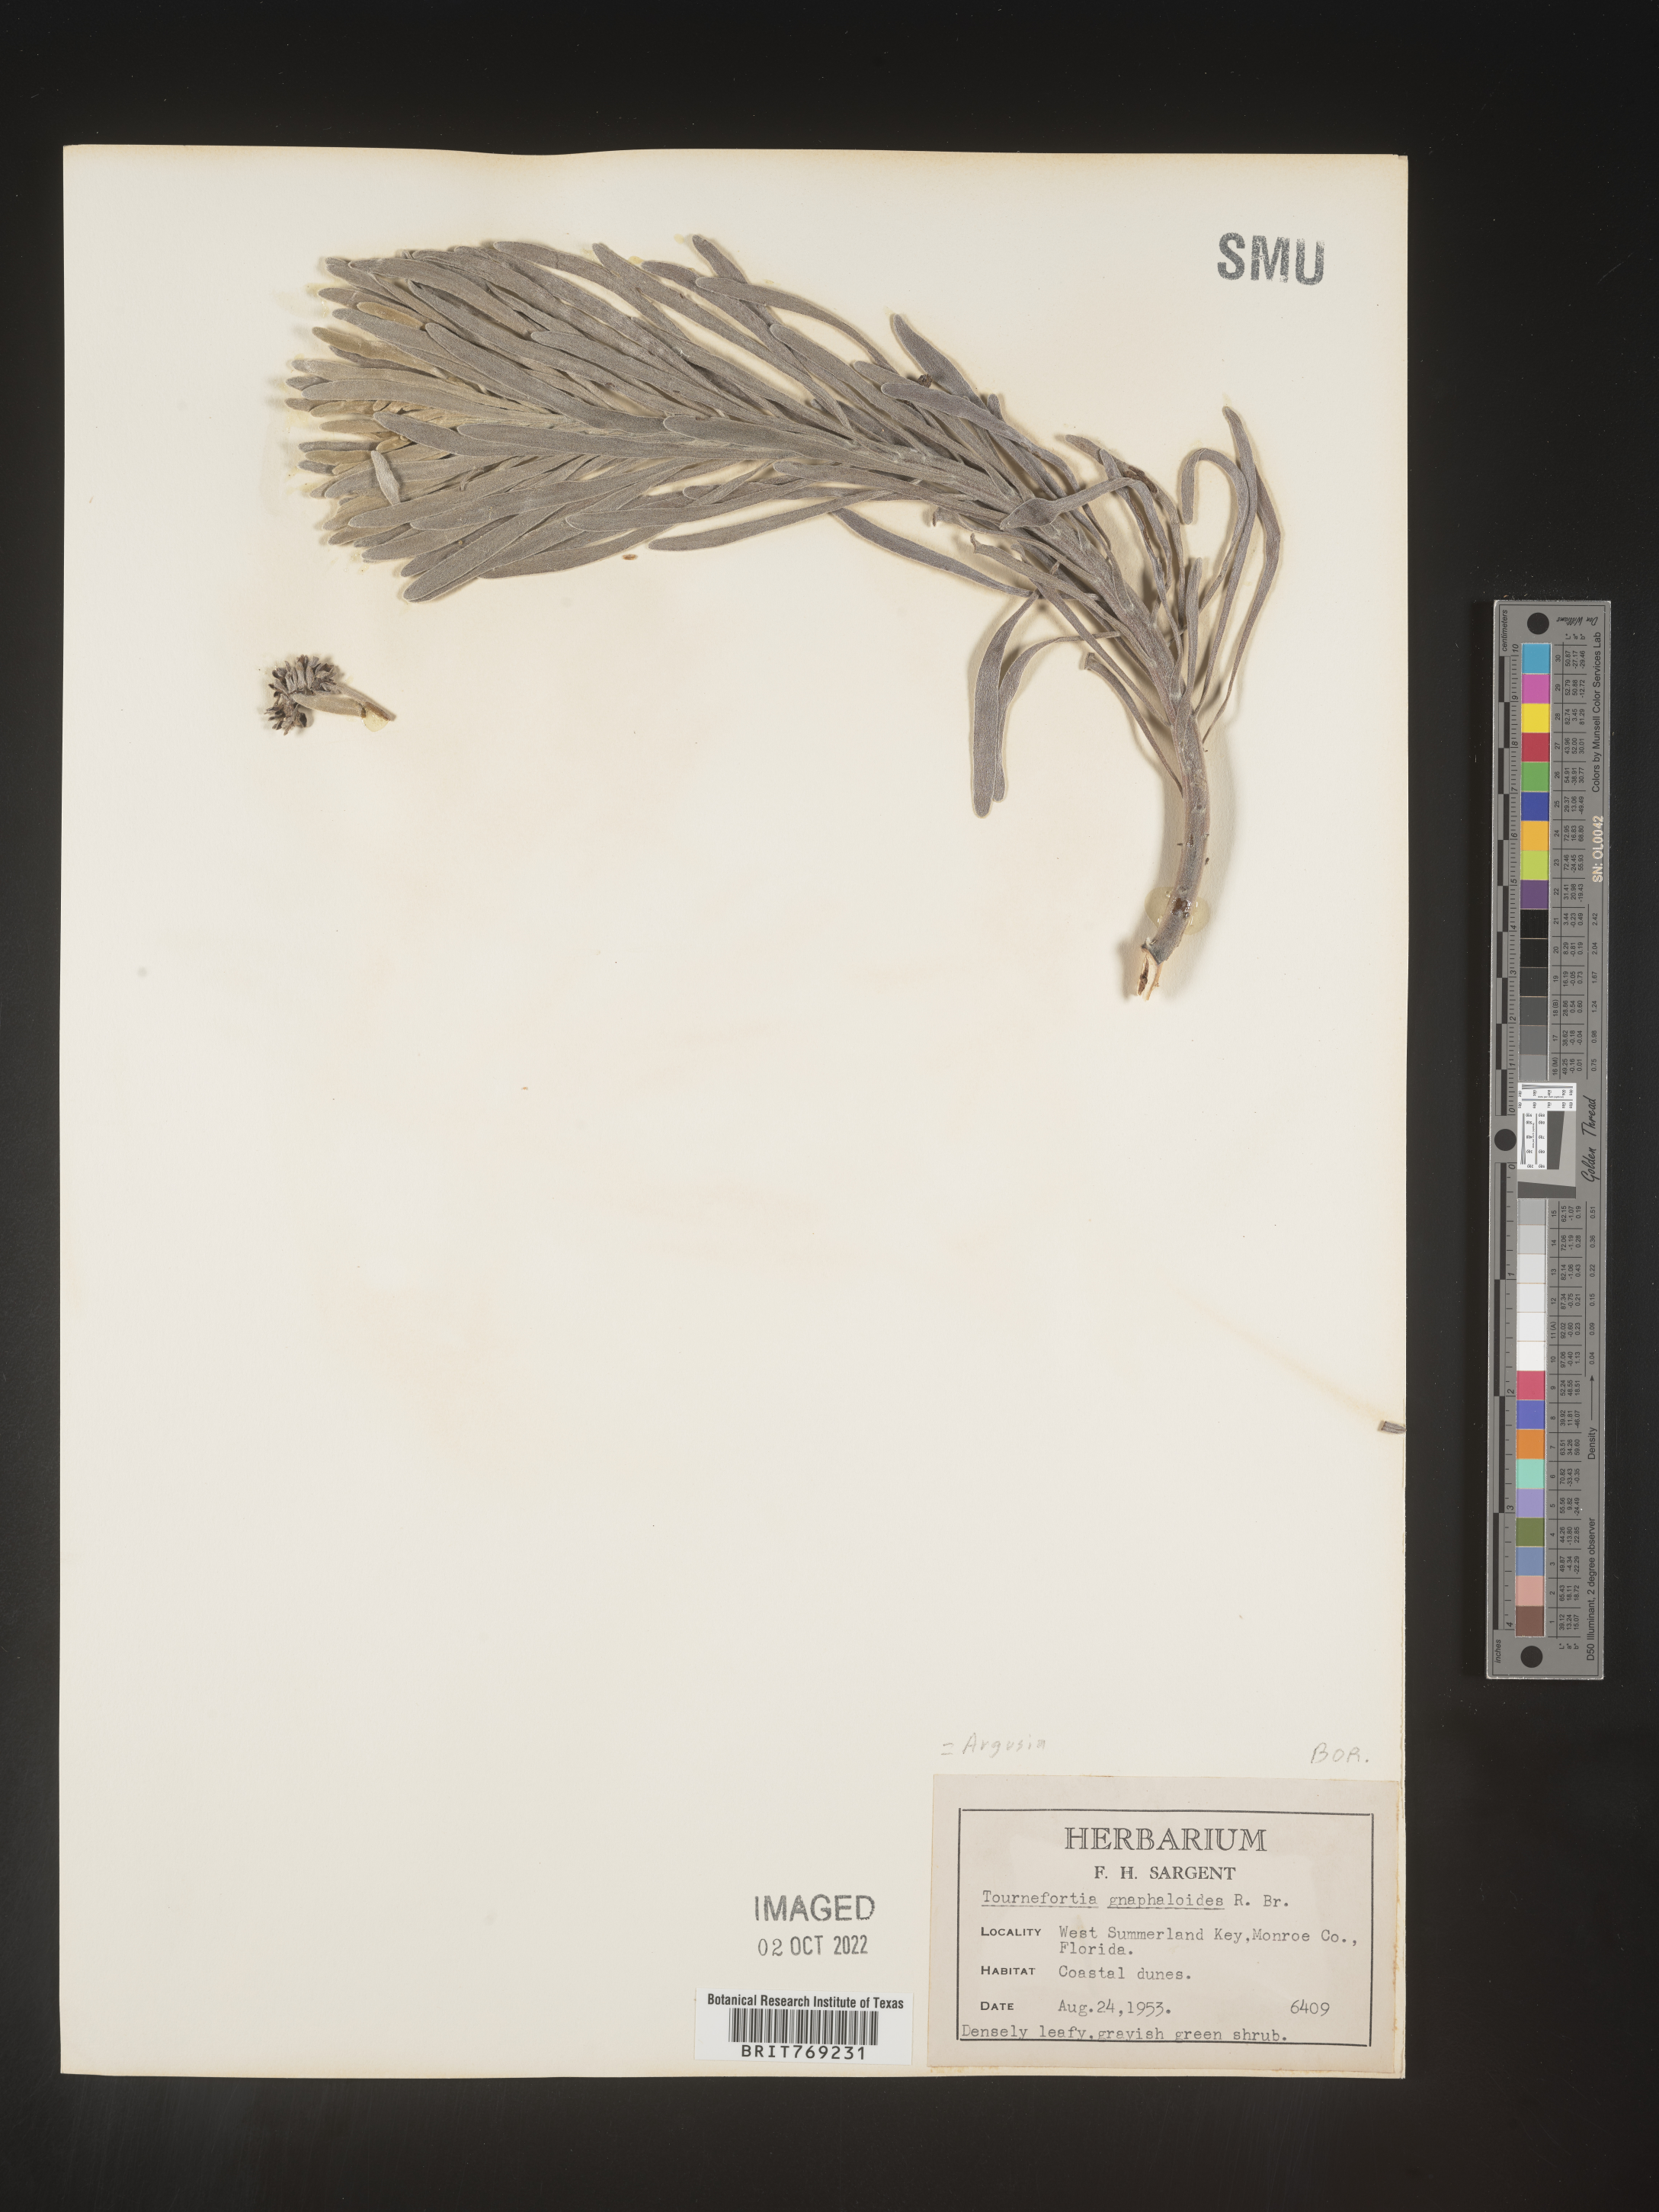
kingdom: Plantae
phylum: Tracheophyta
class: Magnoliopsida
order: Boraginales
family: Heliotropiaceae
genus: Tournefortia
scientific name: Tournefortia
